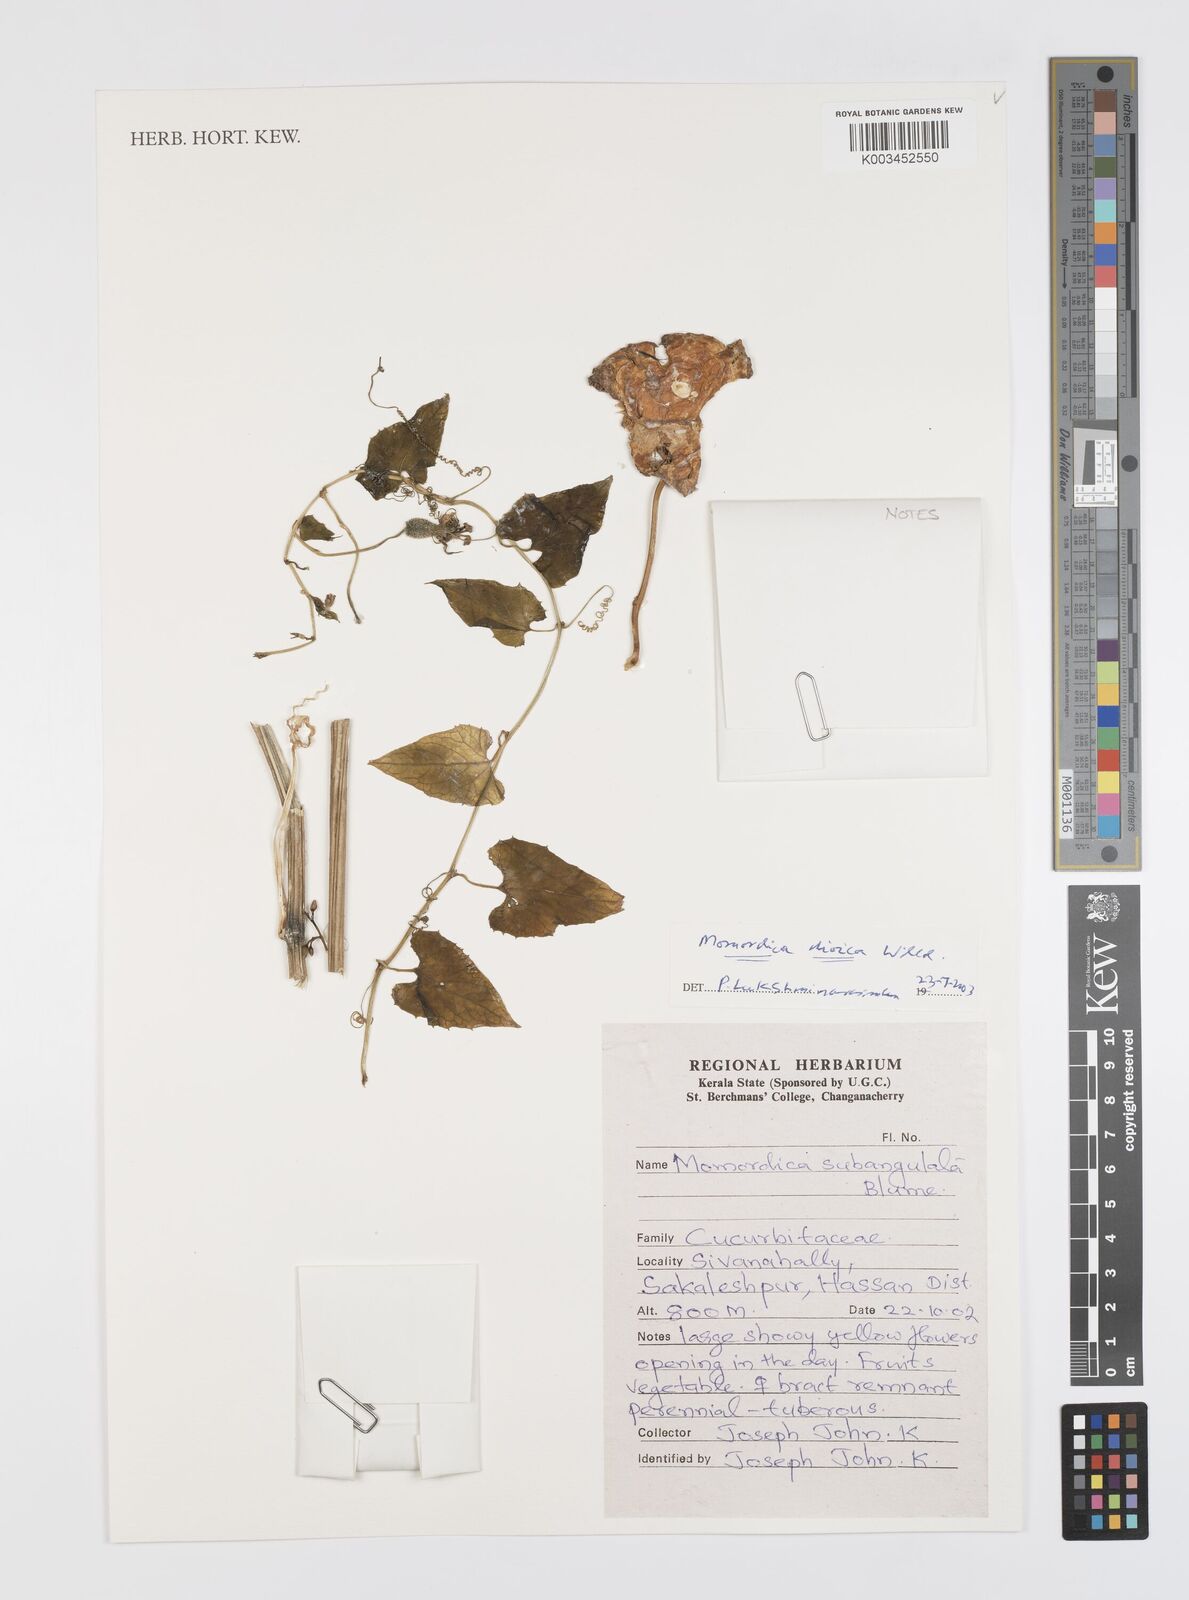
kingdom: Plantae
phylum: Tracheophyta
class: Magnoliopsida
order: Cucurbitales
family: Cucurbitaceae
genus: Momordica
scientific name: Momordica dioica
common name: Spine gourd
